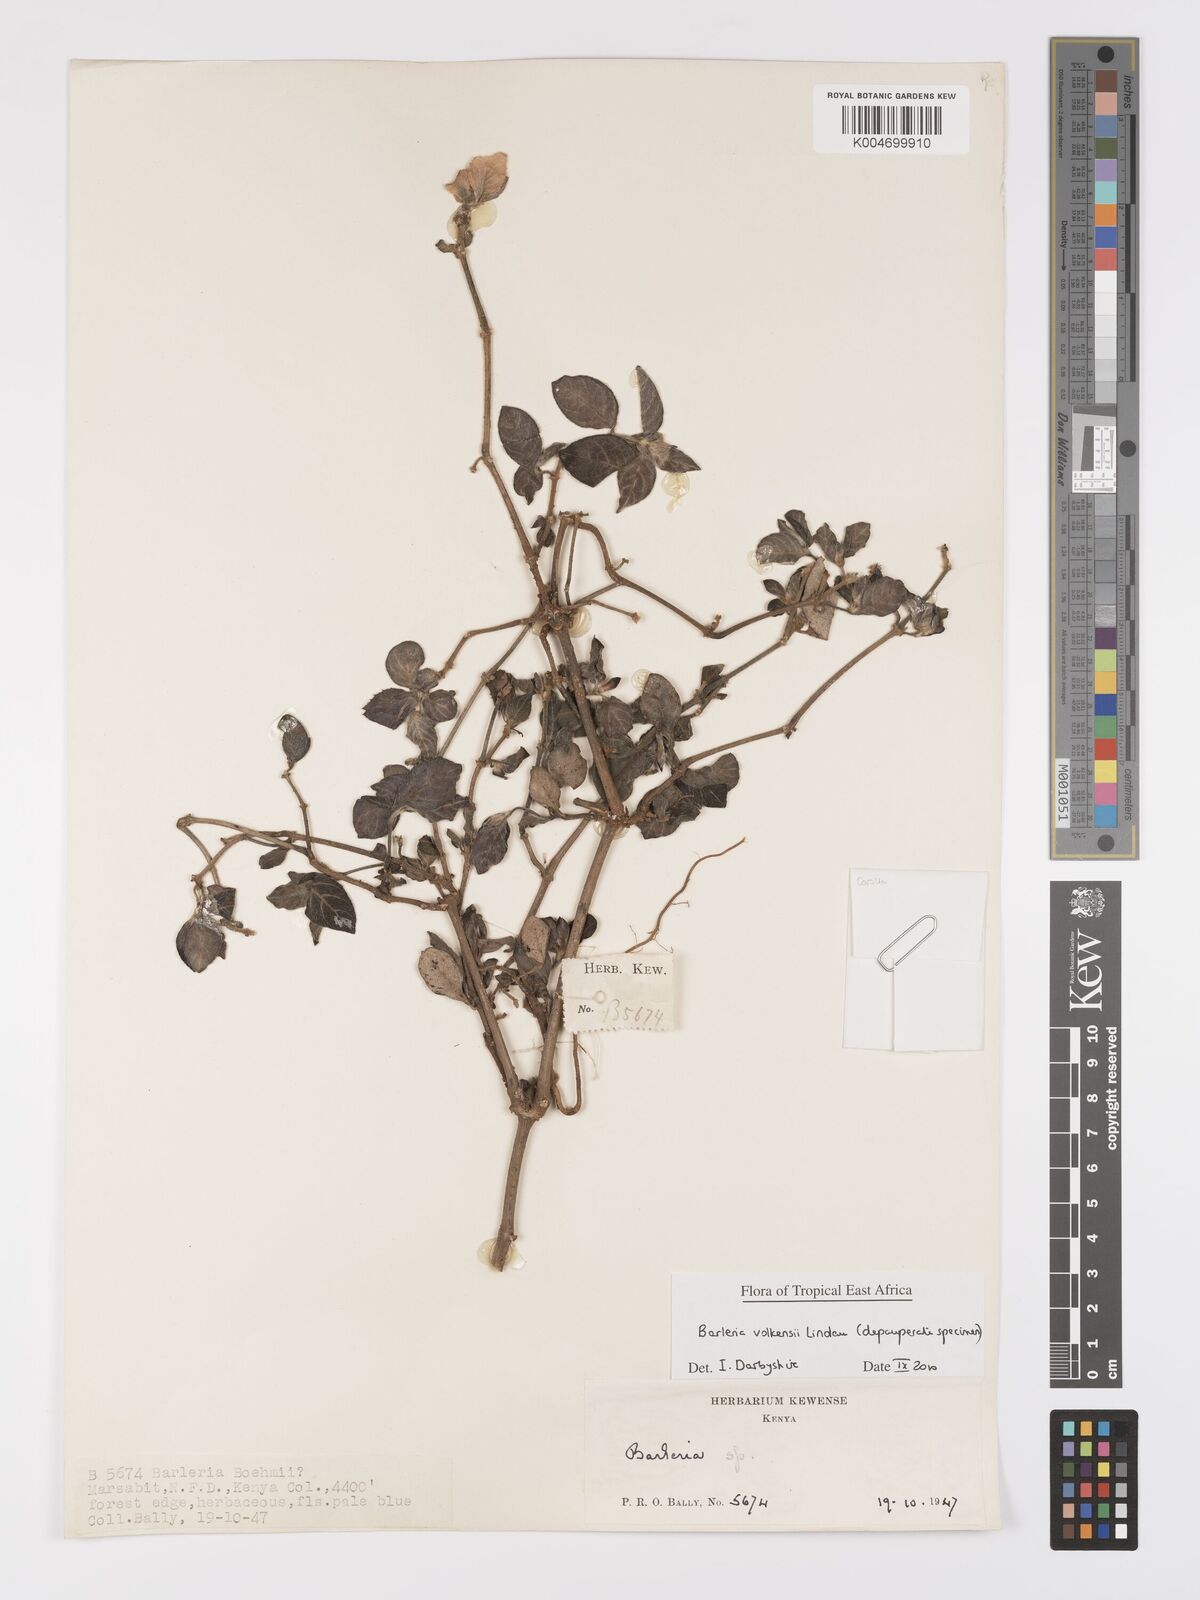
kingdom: Plantae
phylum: Tracheophyta
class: Magnoliopsida
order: Lamiales
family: Acanthaceae
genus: Barleria
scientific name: Barleria volkensii
